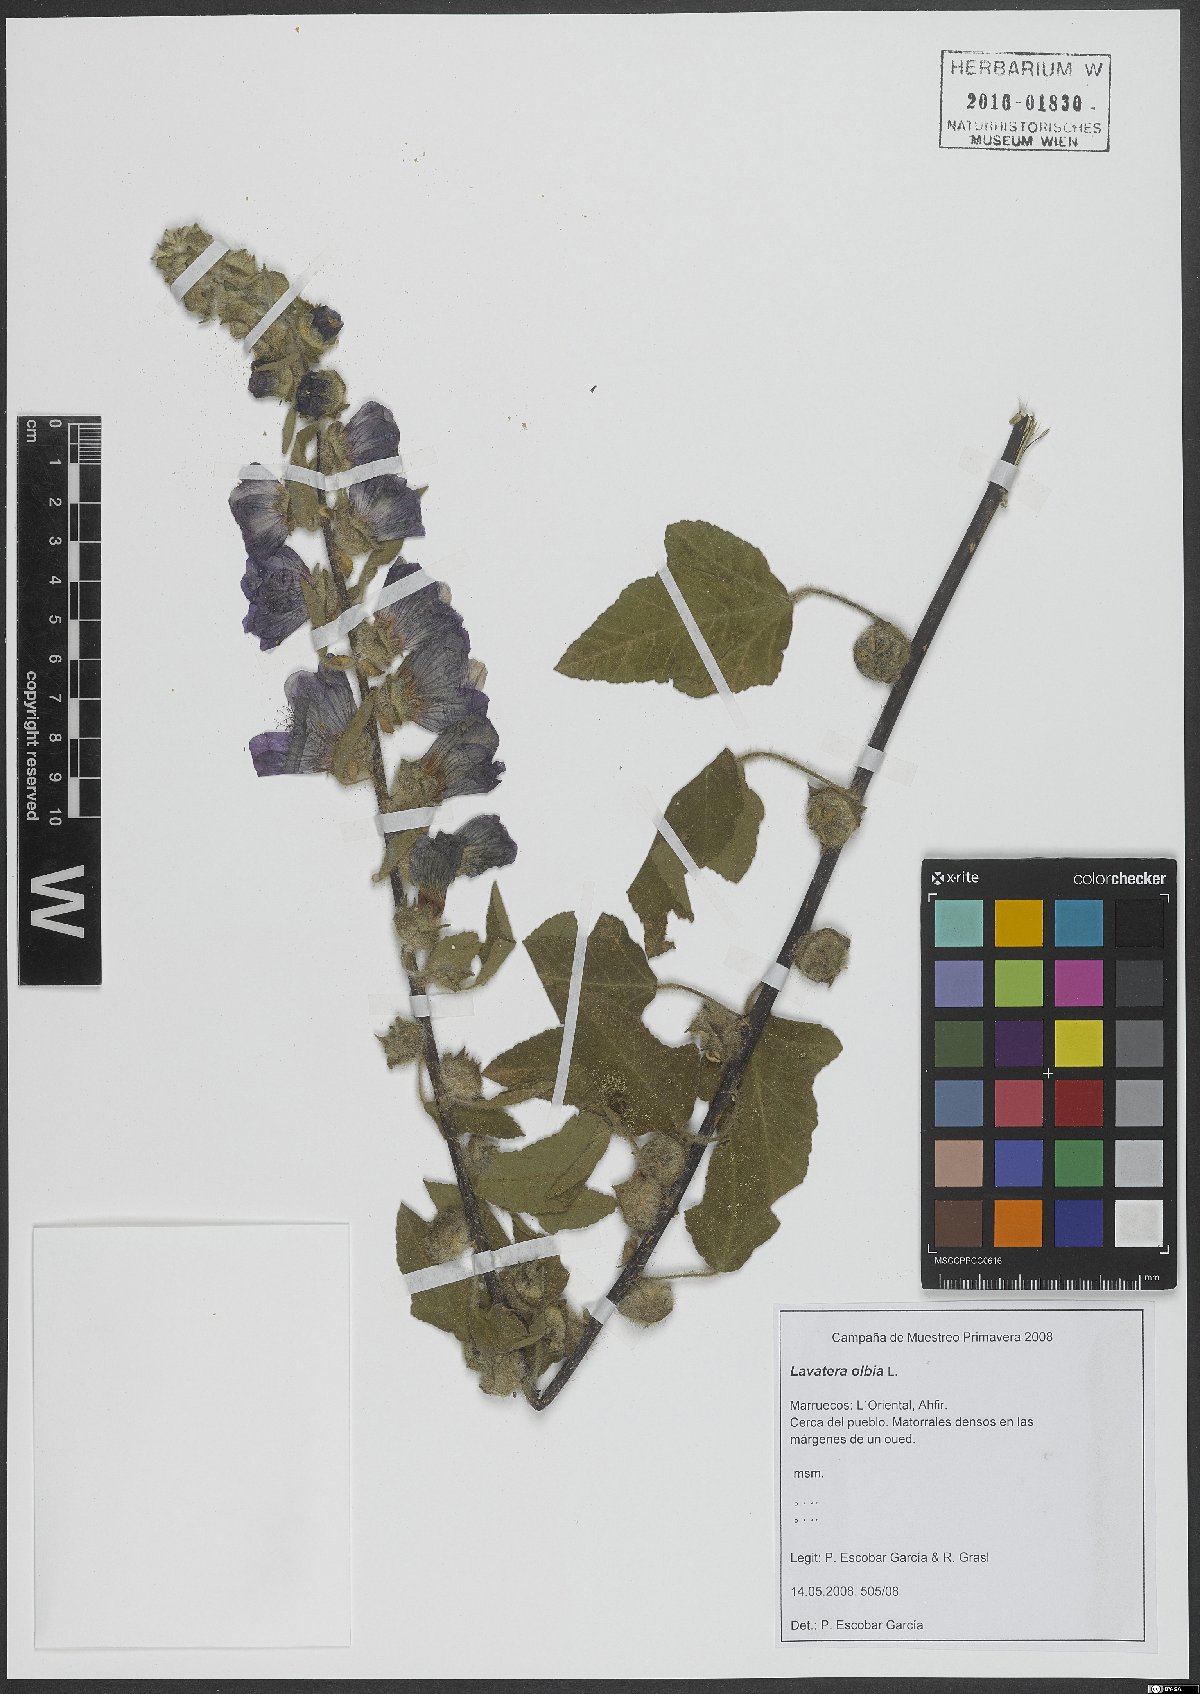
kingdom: Plantae
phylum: Tracheophyta
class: Magnoliopsida
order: Malvales
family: Malvaceae
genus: Malva
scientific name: Malva olbia
